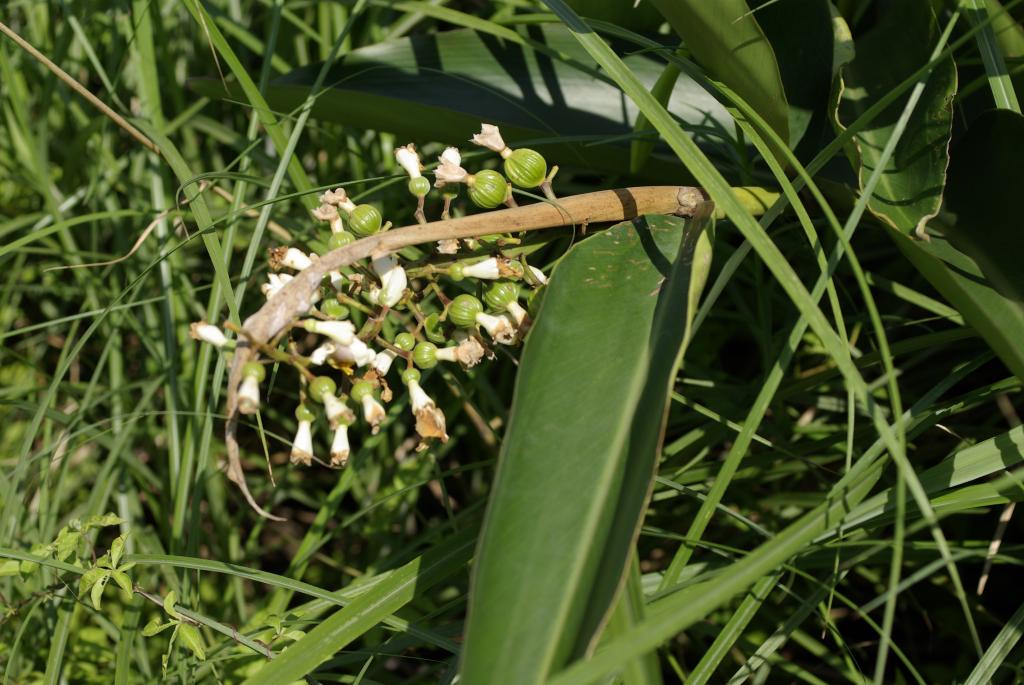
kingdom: Plantae
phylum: Tracheophyta
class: Liliopsida
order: Zingiberales
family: Zingiberaceae
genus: Alpinia
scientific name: Alpinia zerumbet
